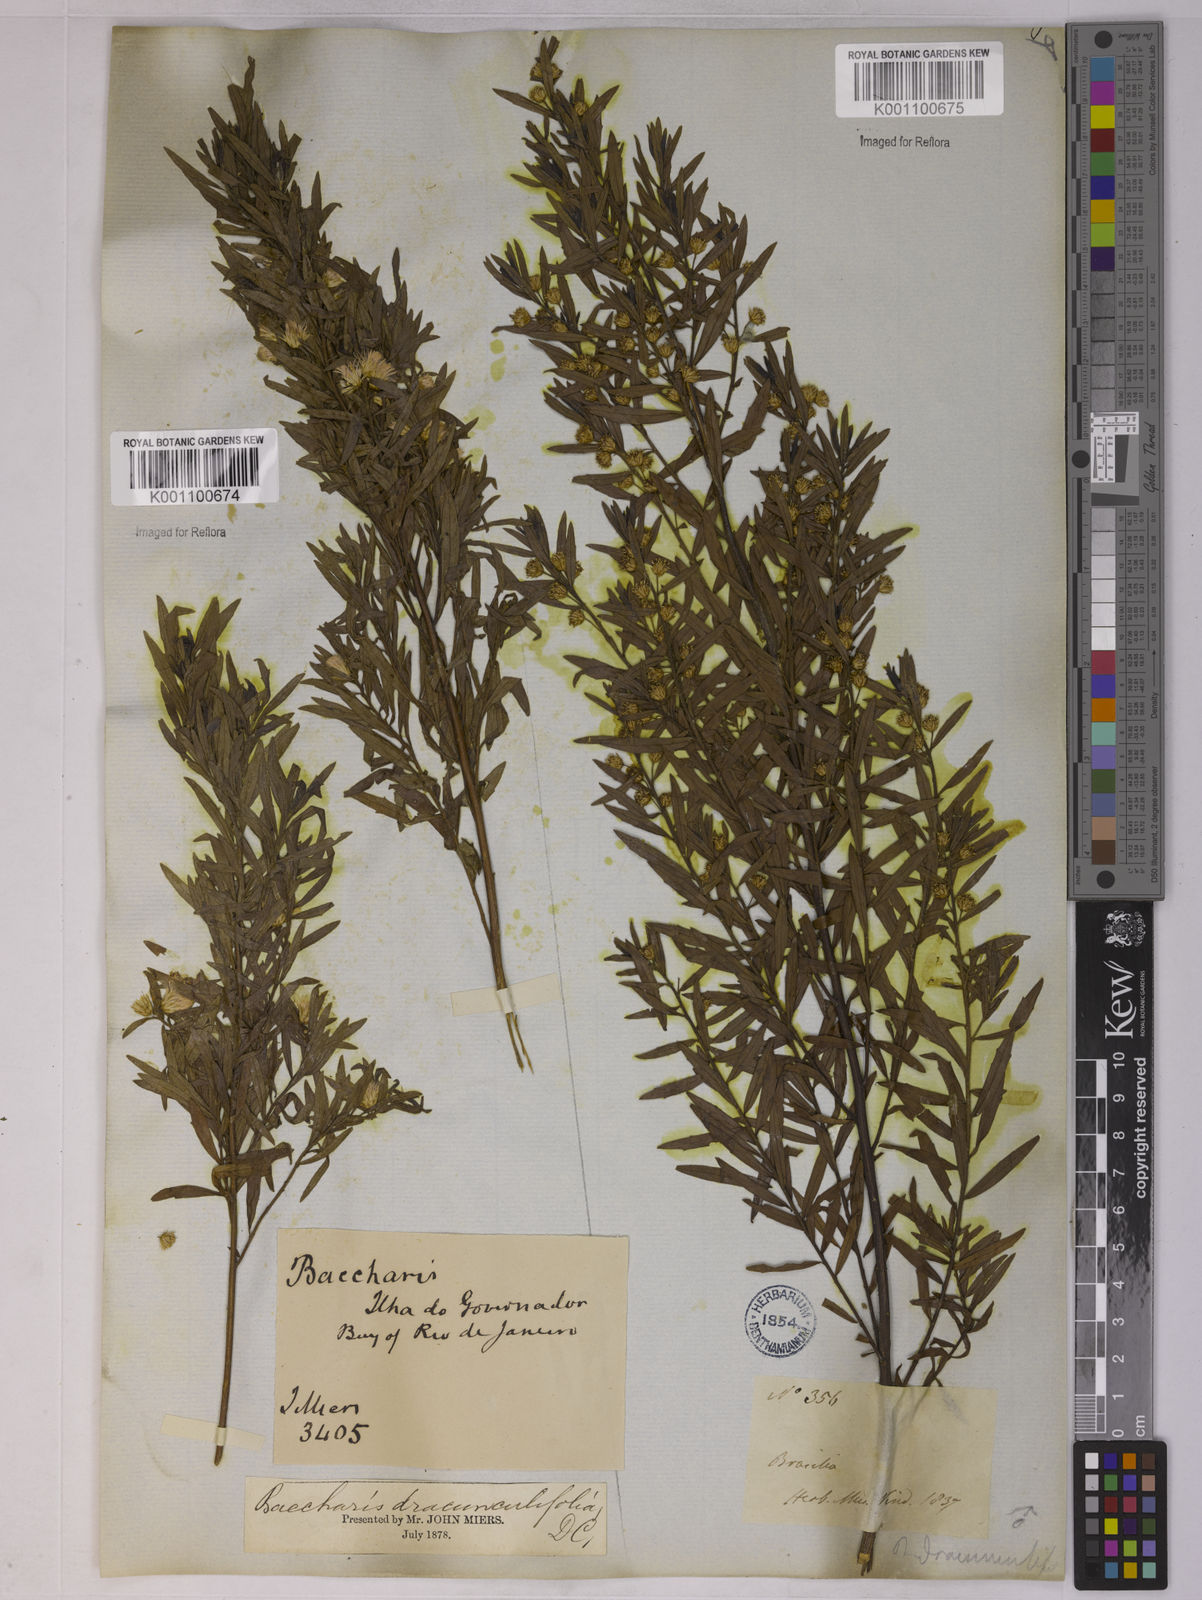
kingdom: Plantae
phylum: Tracheophyta
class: Magnoliopsida
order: Asterales
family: Asteraceae
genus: Baccharis
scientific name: Baccharis dracunculifolia
